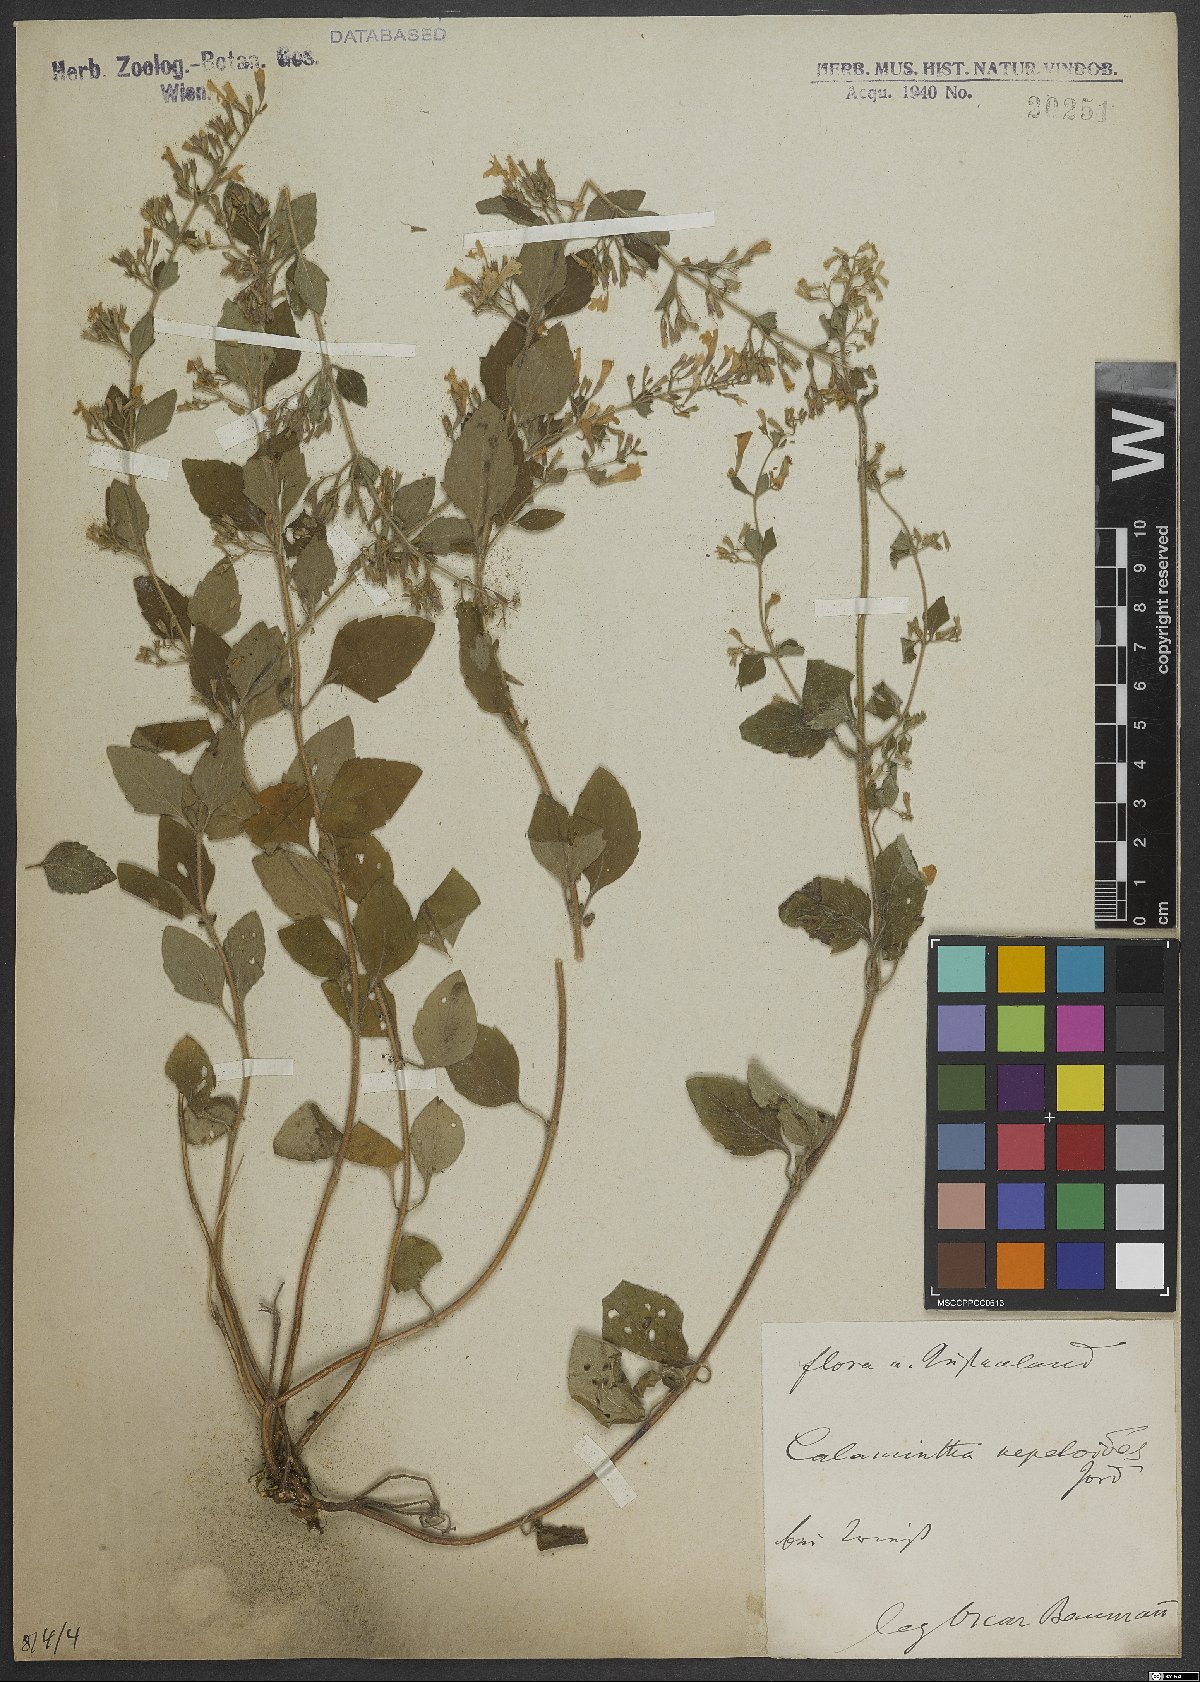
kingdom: Plantae
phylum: Tracheophyta
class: Magnoliopsida
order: Lamiales
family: Lamiaceae
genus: Clinopodium
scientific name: Clinopodium nepeta
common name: Lesser calamint
